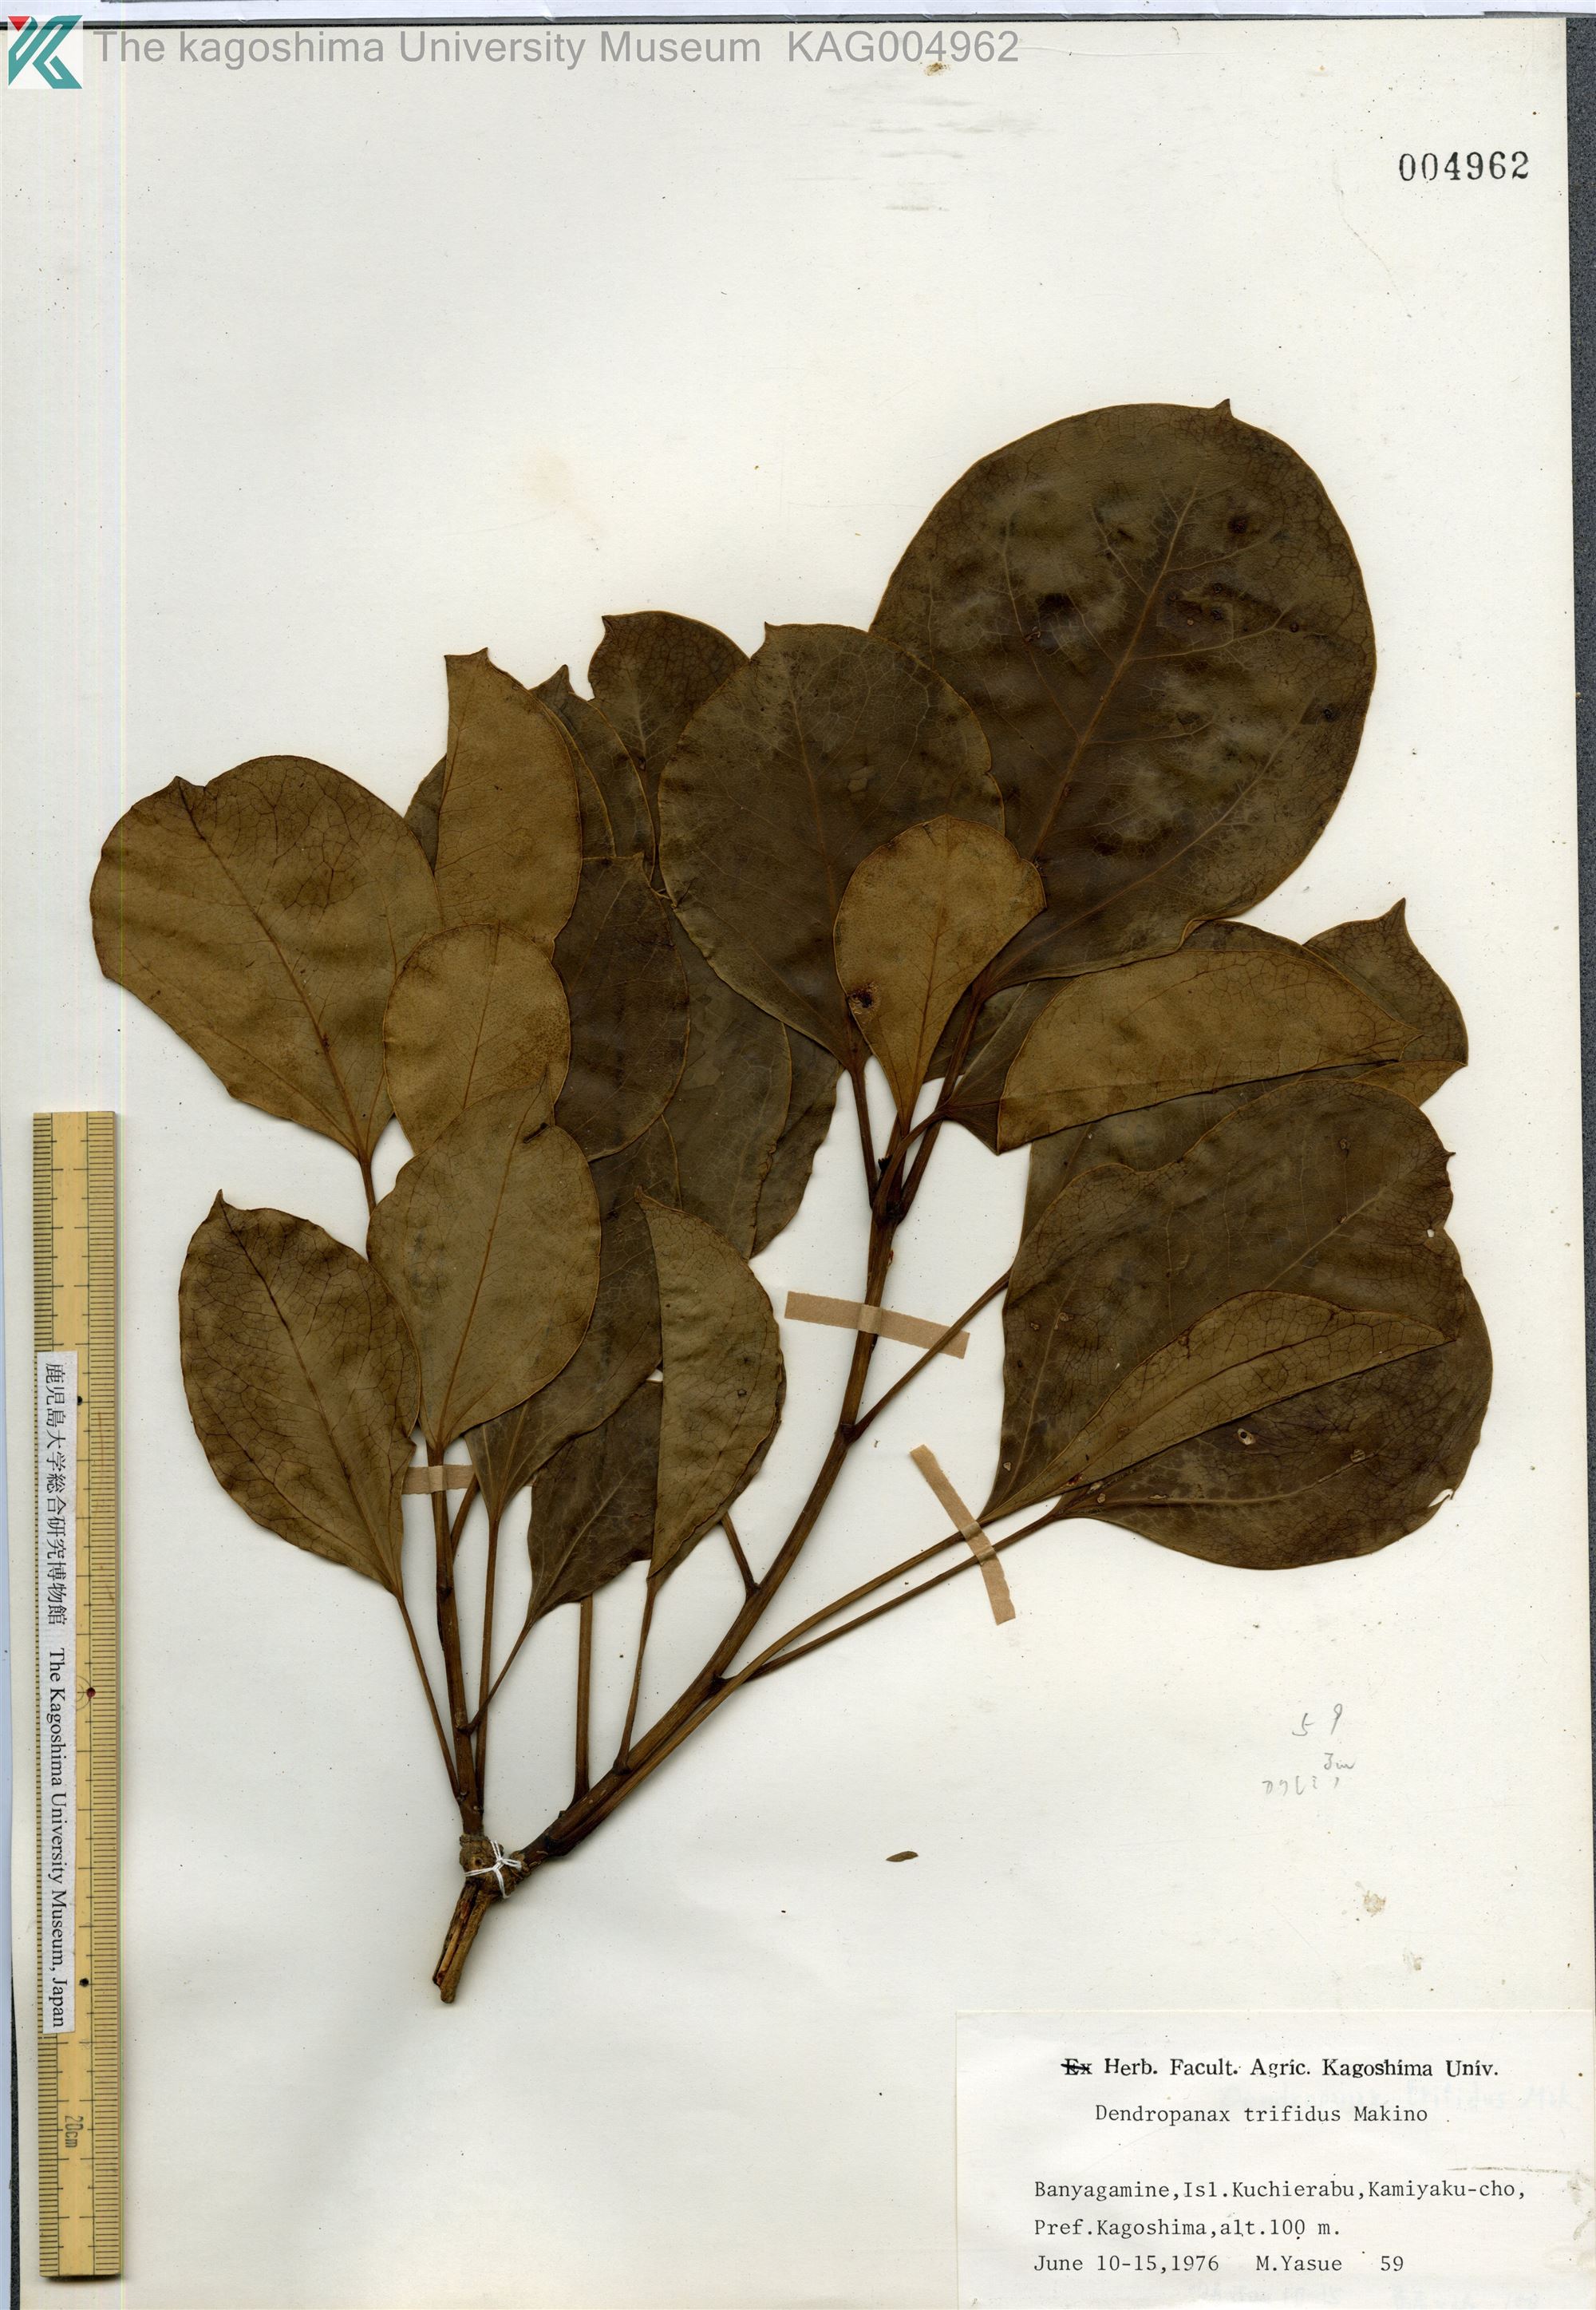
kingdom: Plantae
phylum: Tracheophyta
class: Magnoliopsida
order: Apiales
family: Araliaceae
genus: Dendropanax
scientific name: Dendropanax trifidus
